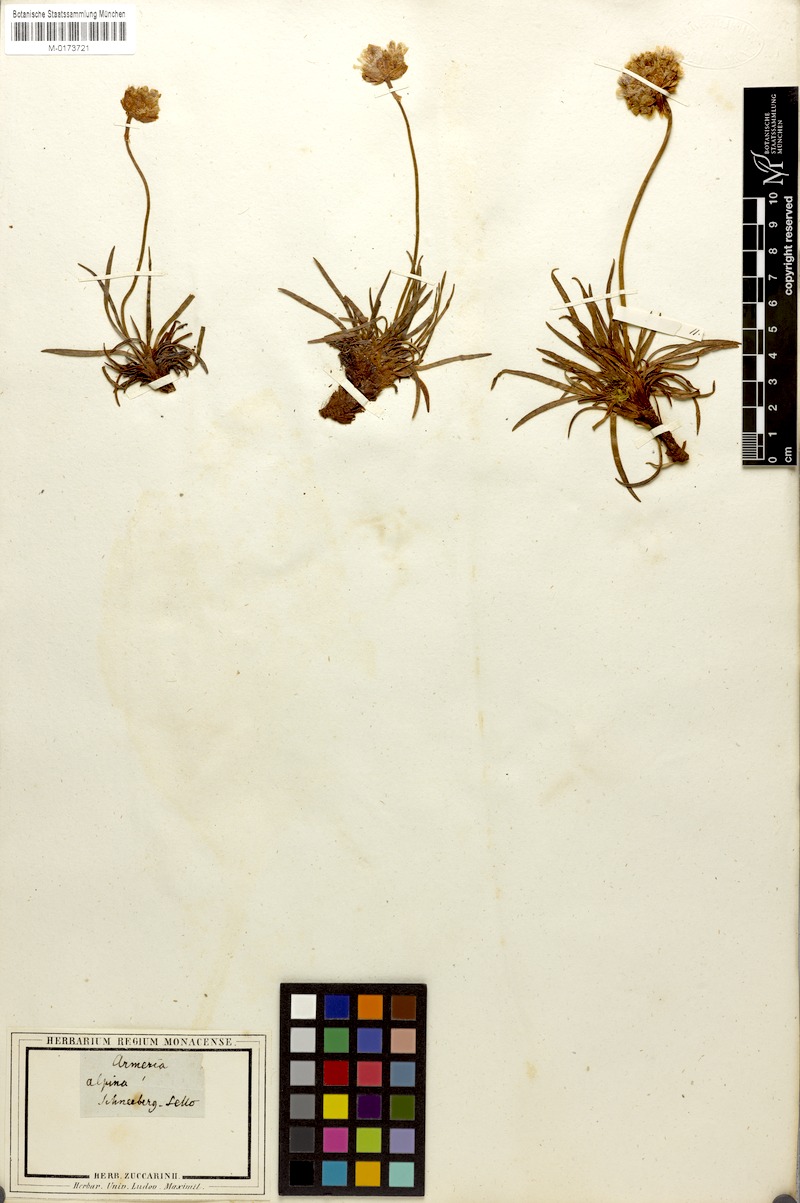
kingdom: Plantae
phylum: Tracheophyta
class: Magnoliopsida
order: Caryophyllales
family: Plumbaginaceae
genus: Armeria
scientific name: Armeria alpina
